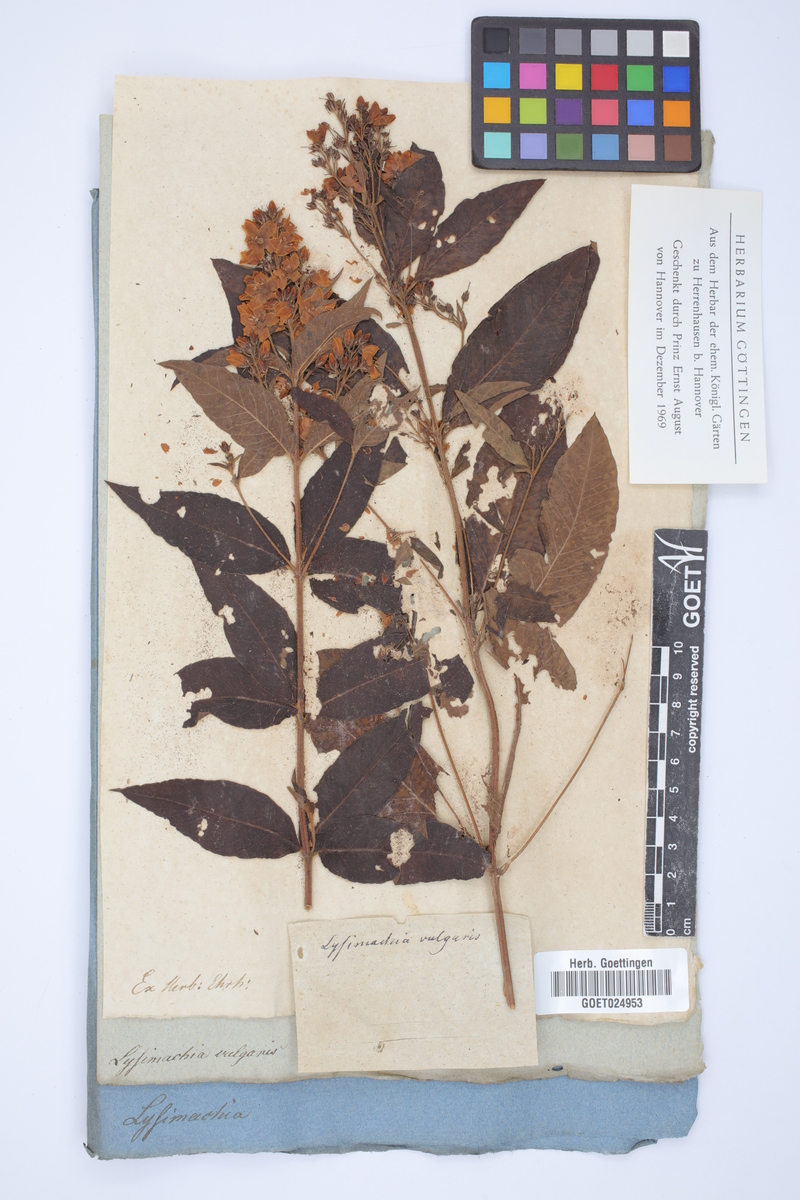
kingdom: Plantae
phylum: Tracheophyta
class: Magnoliopsida
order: Ericales
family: Primulaceae
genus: Lysimachia
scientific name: Lysimachia vulgaris
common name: Yellow loosestrife
